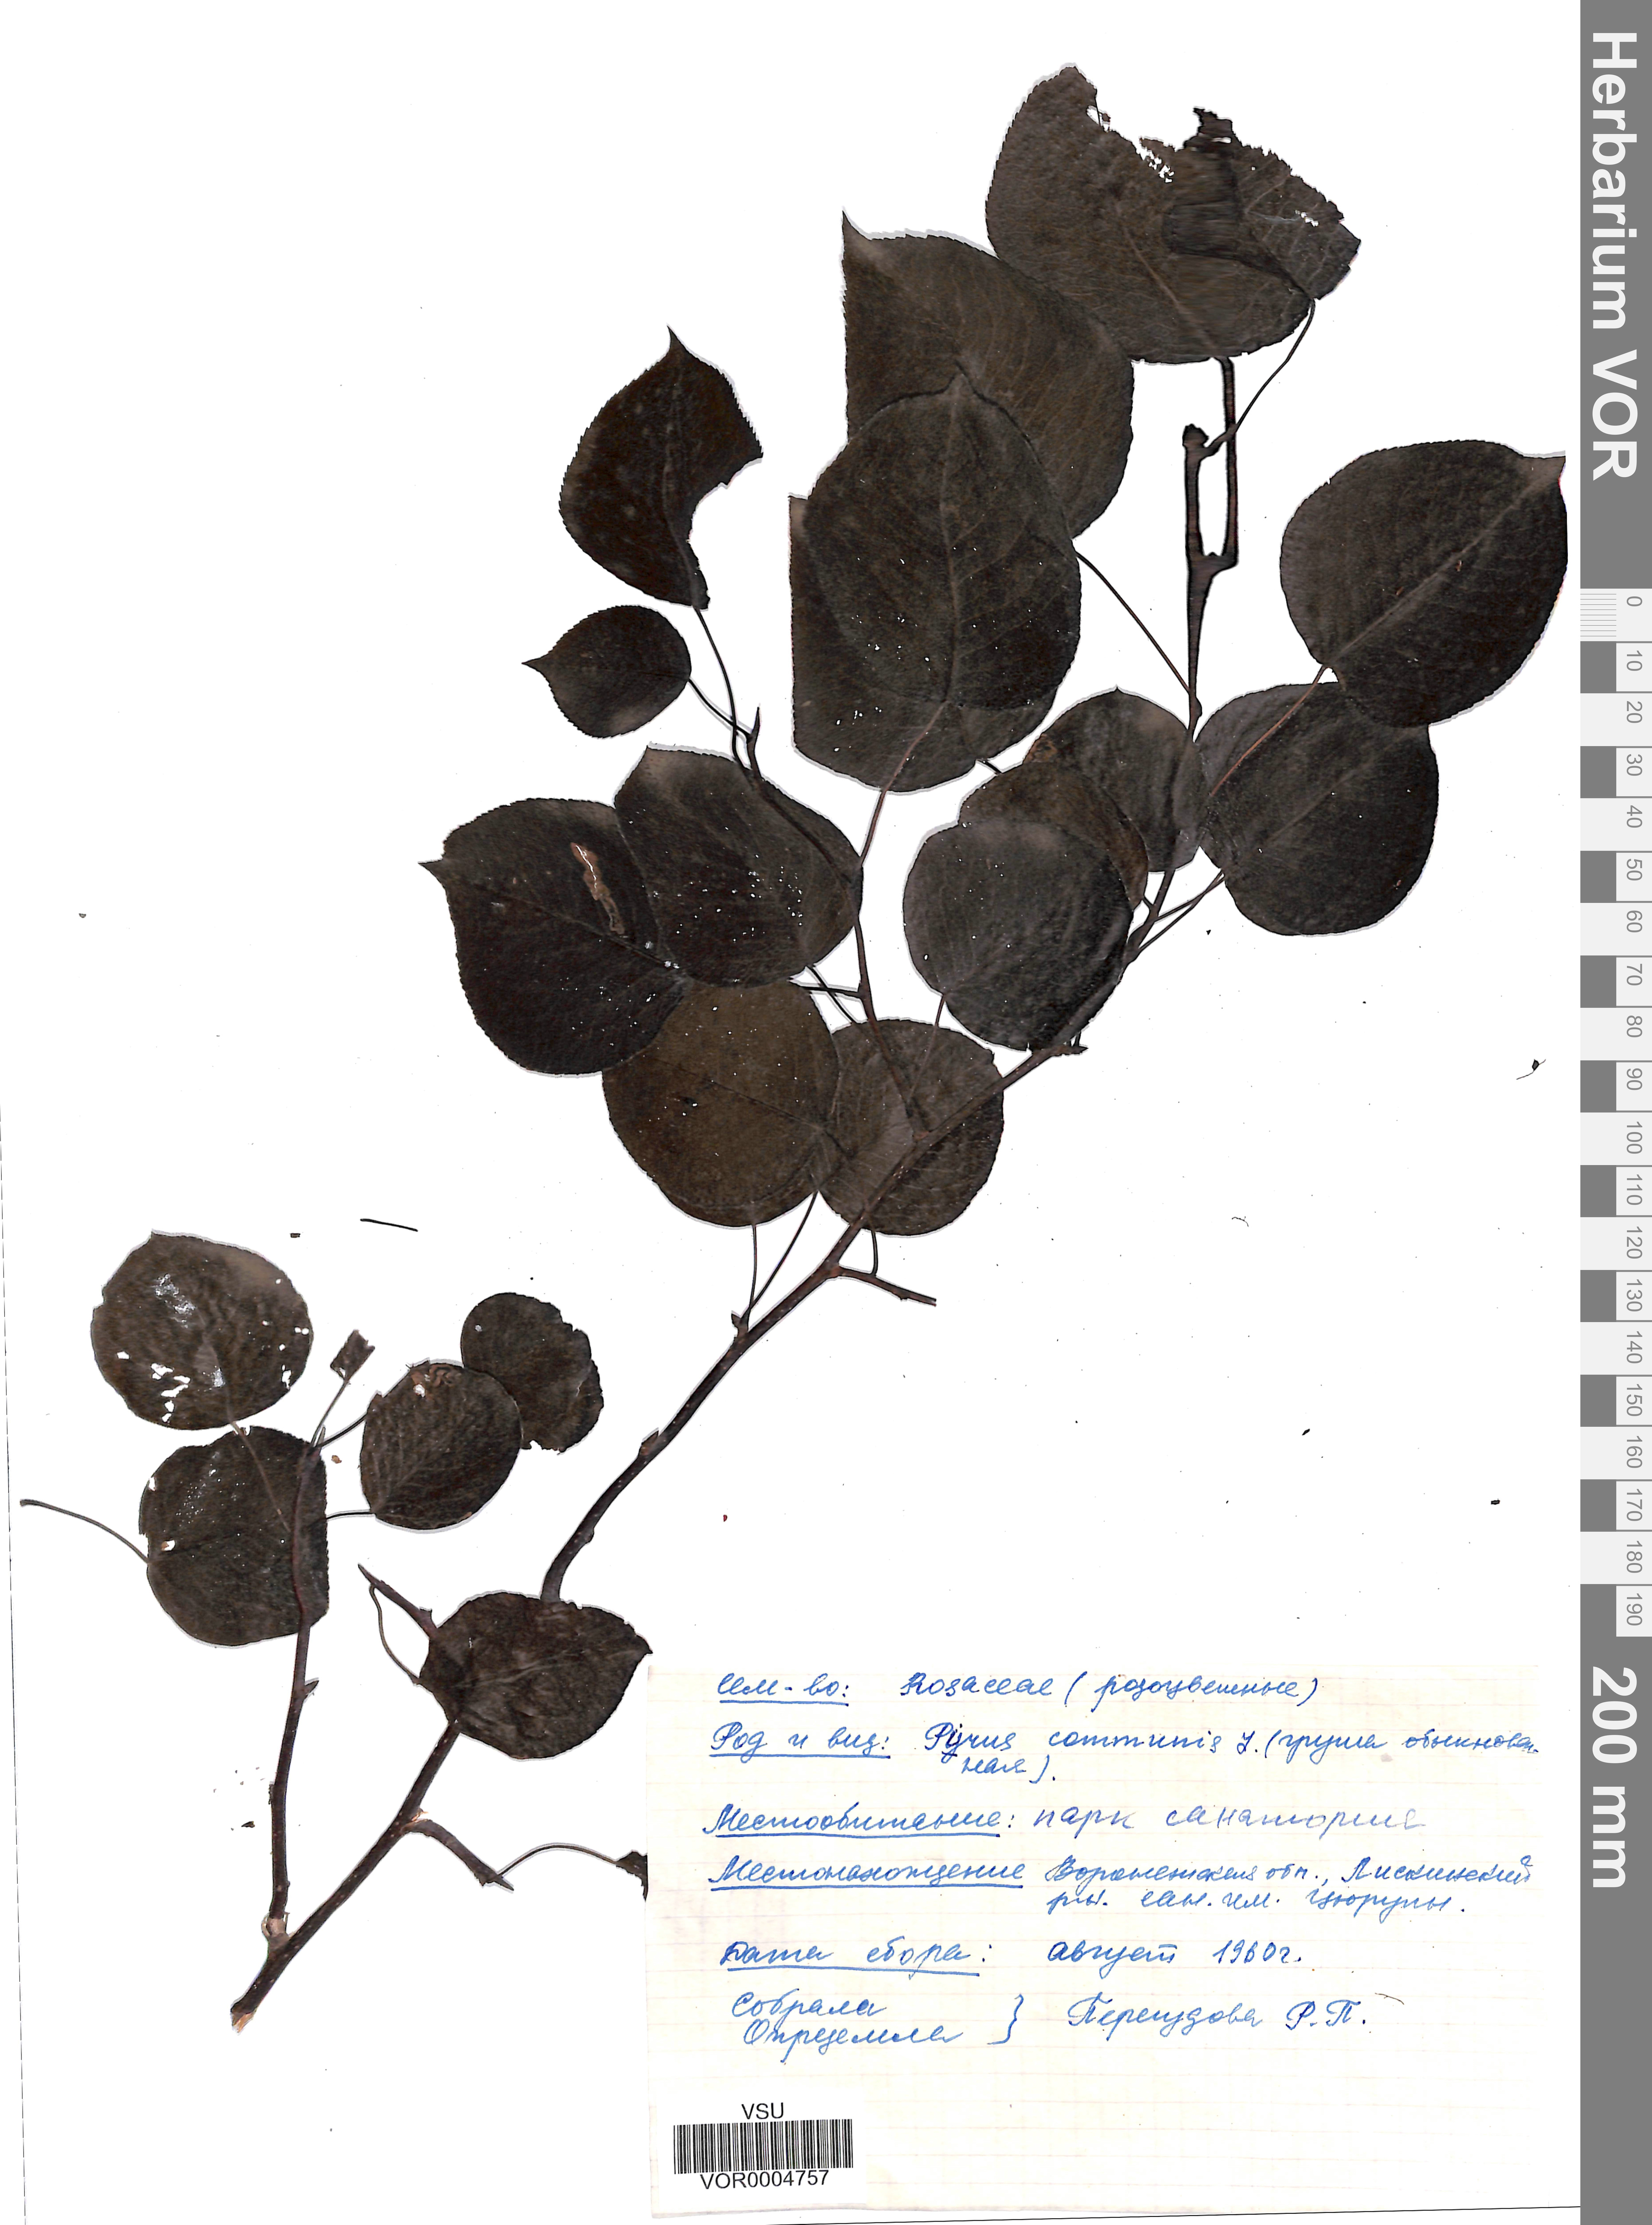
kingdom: Plantae
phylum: Tracheophyta
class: Magnoliopsida
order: Rosales
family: Rosaceae
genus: Pyrus
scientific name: Pyrus communis
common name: Pear
